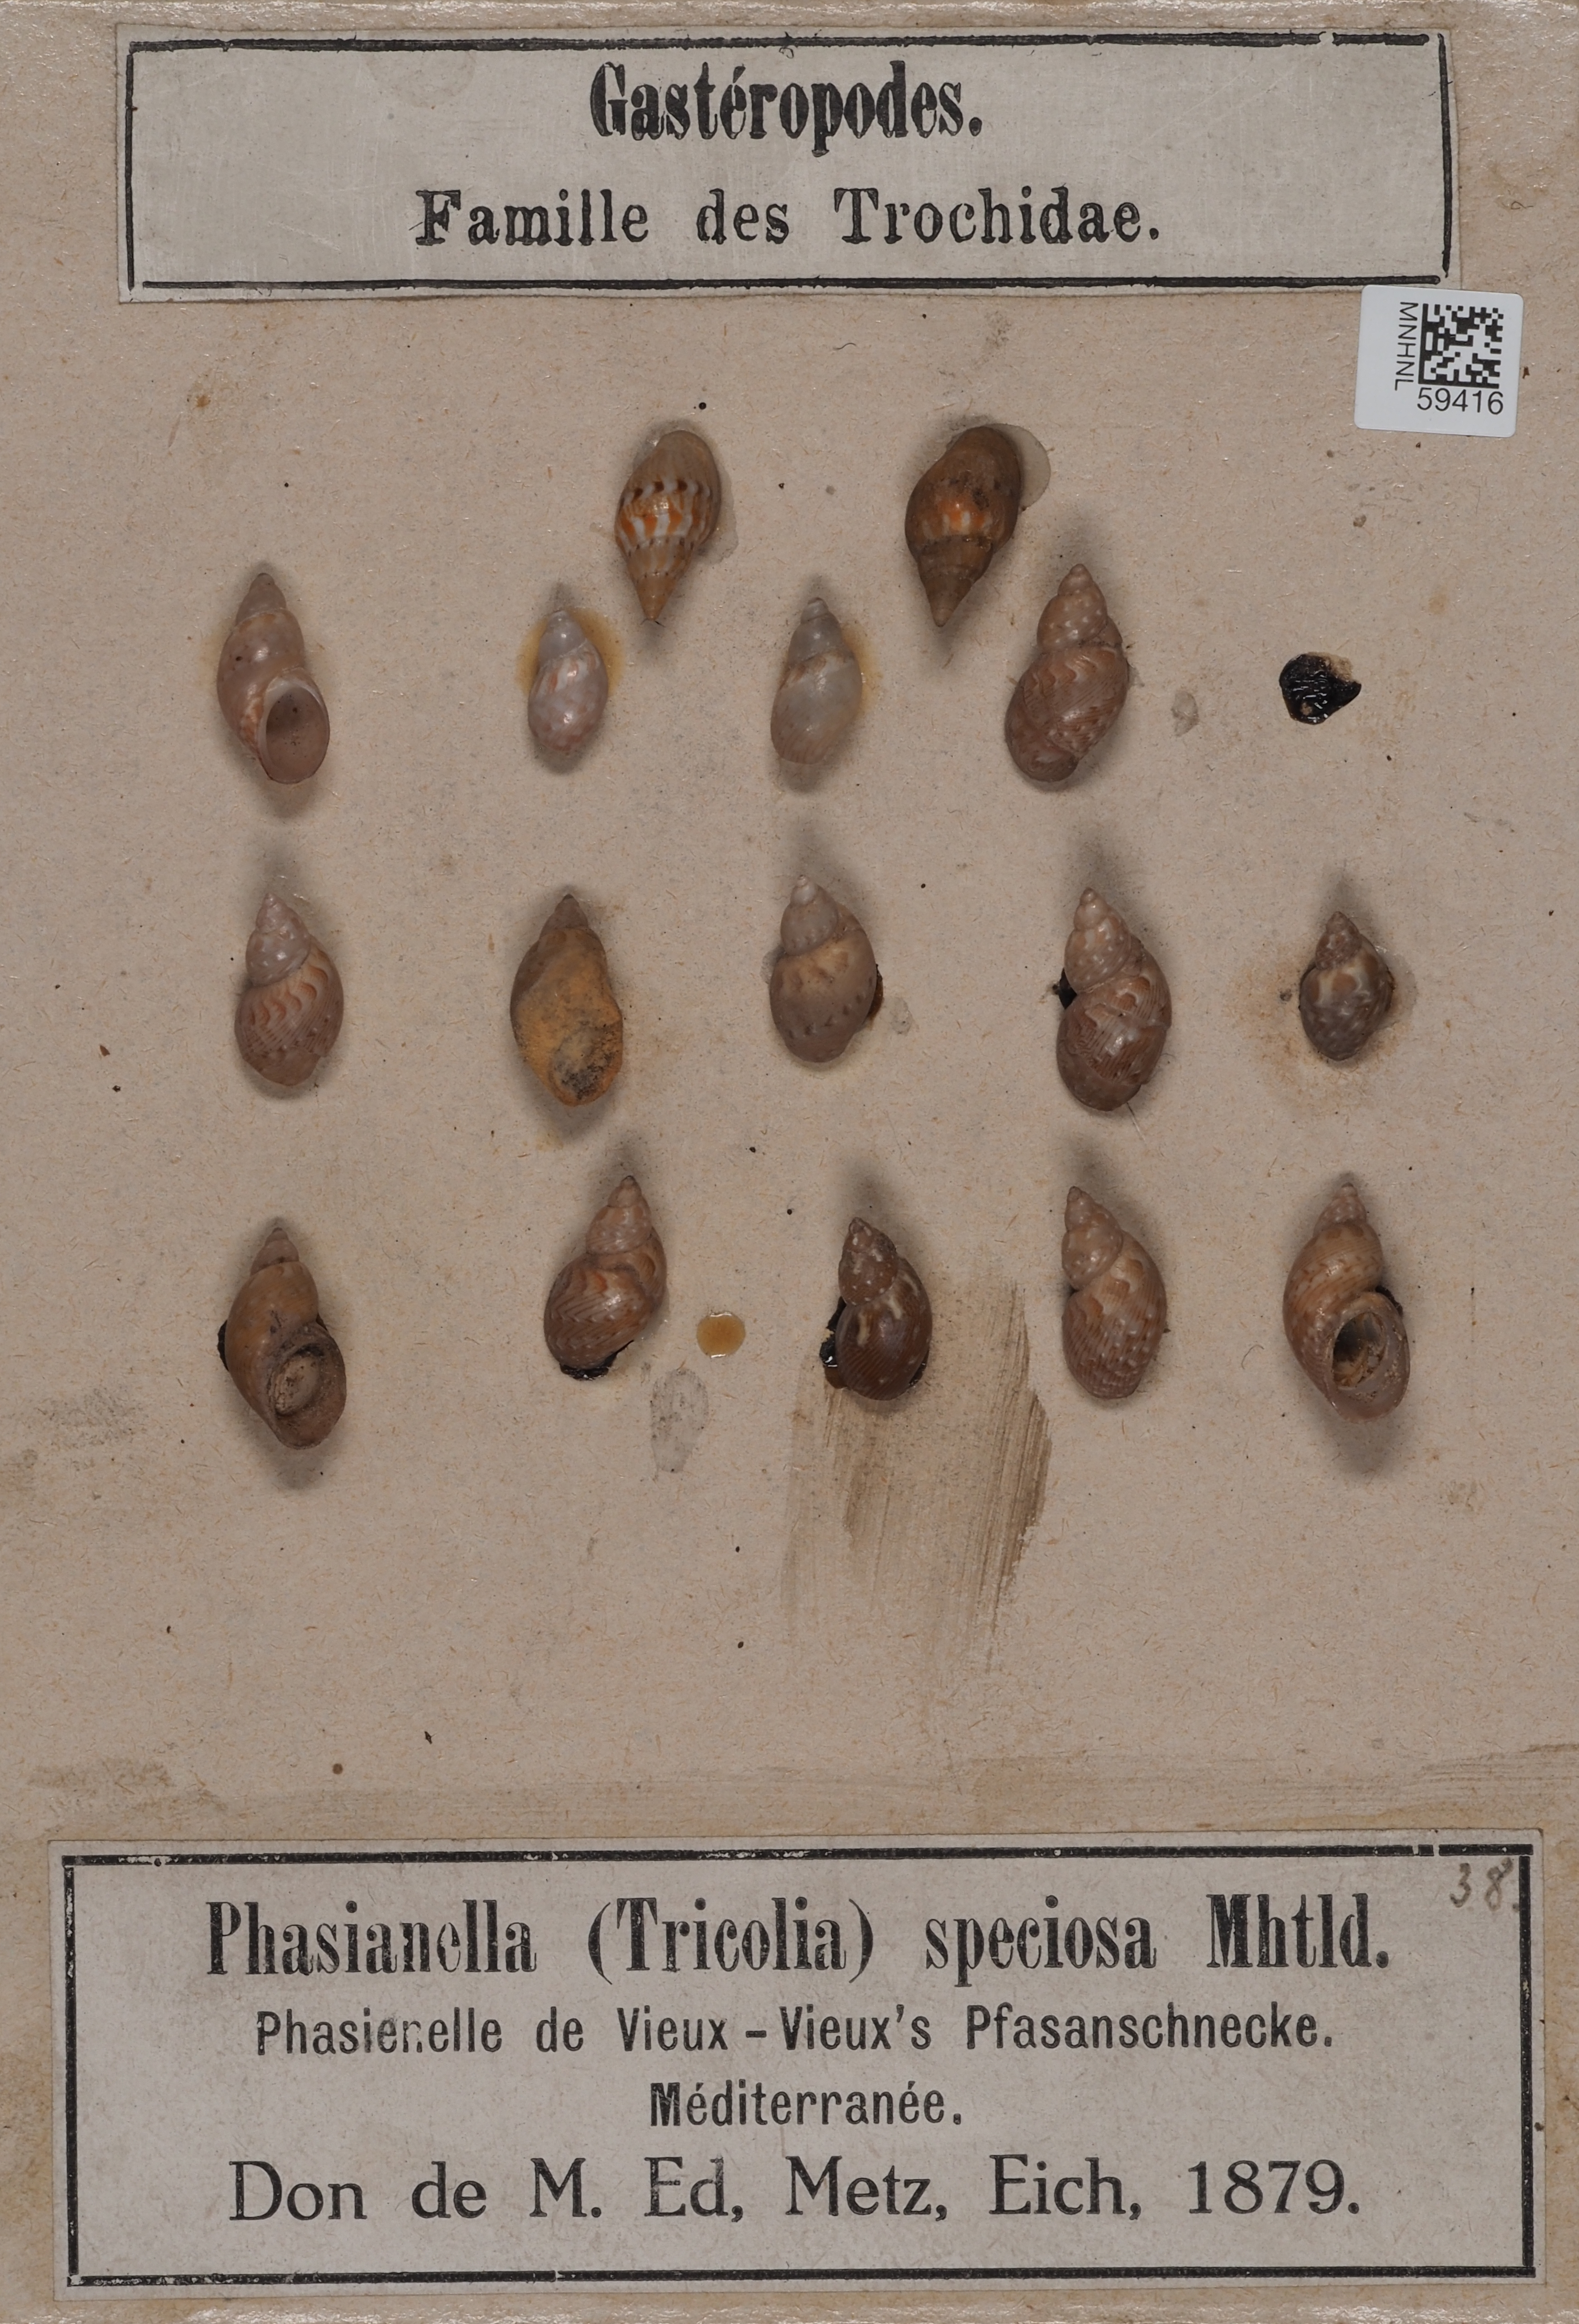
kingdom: Animalia
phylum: Mollusca
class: Gastropoda
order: Trochida
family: Phasianellidae
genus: Tricolia
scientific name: Tricolia speciosa
